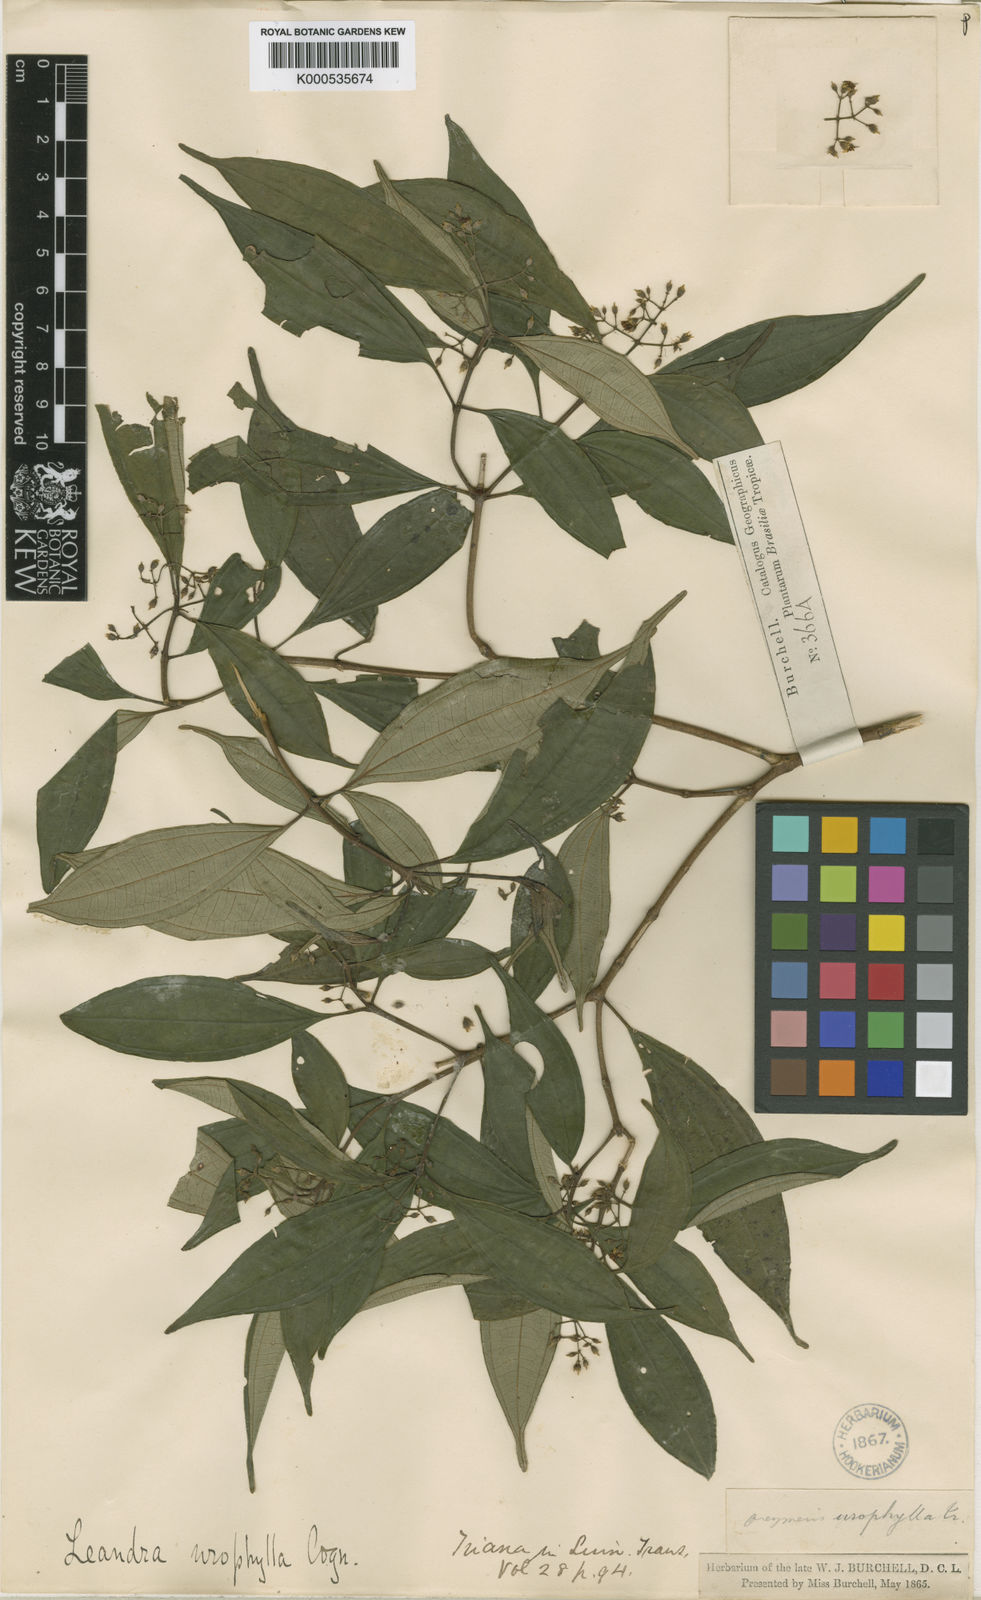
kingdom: Plantae
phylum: Tracheophyta
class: Magnoliopsida
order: Myrtales
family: Melastomataceae
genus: Miconia
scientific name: Miconia acutiflora
